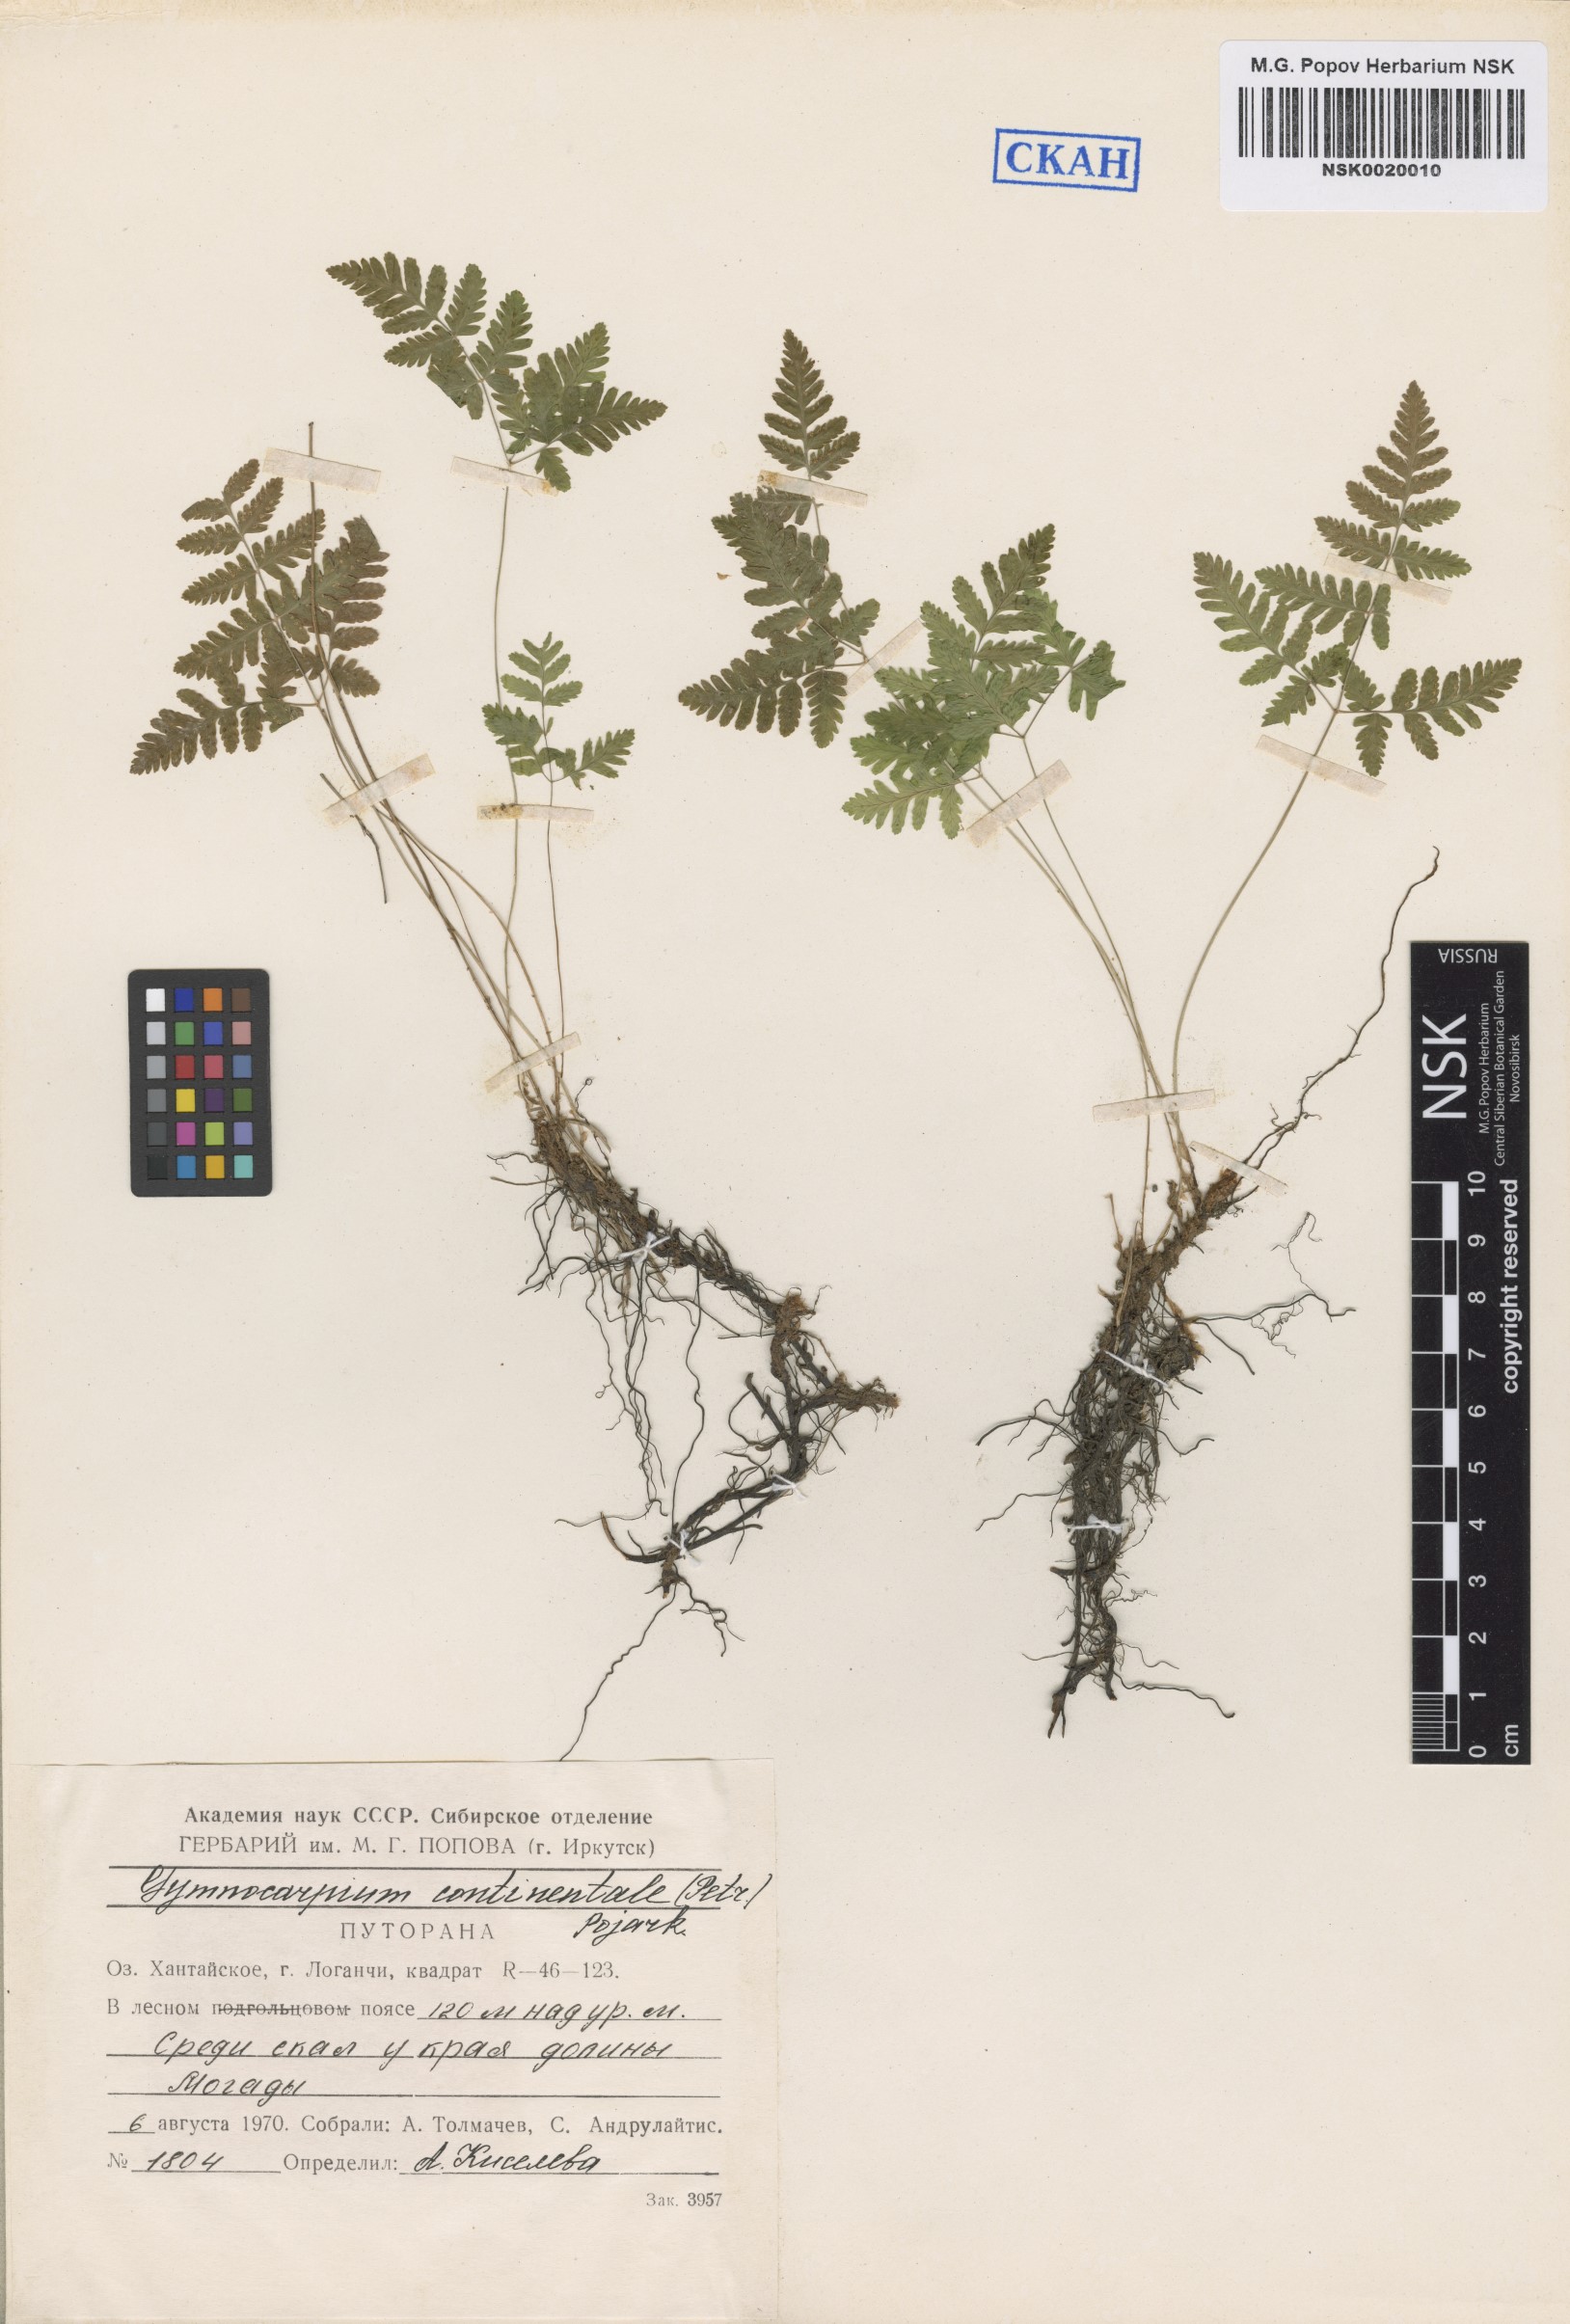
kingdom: Plantae
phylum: Tracheophyta
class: Polypodiopsida
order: Polypodiales
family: Cystopteridaceae
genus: Gymnocarpium
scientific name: Gymnocarpium continentale
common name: Asian oak fern
